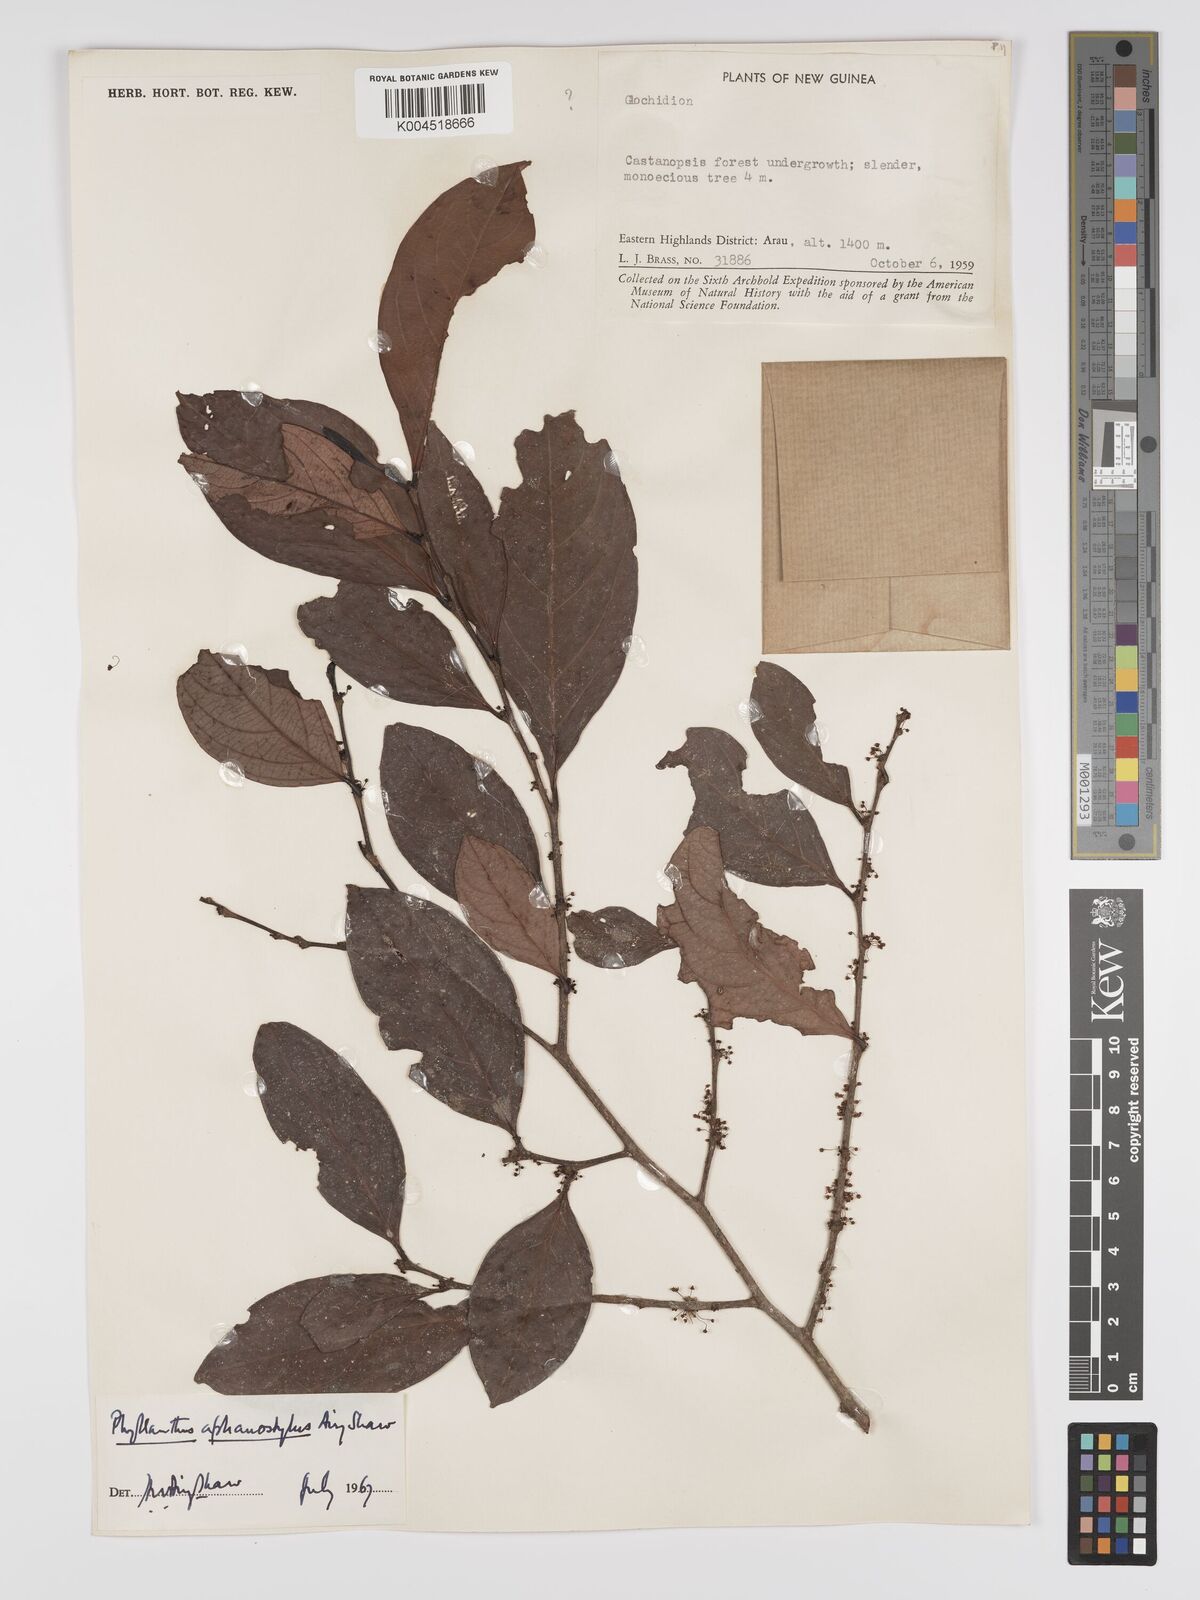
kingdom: Plantae
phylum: Tracheophyta
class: Magnoliopsida
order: Malpighiales
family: Phyllanthaceae
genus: Phyllanthus
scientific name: Phyllanthus aphanostylus
